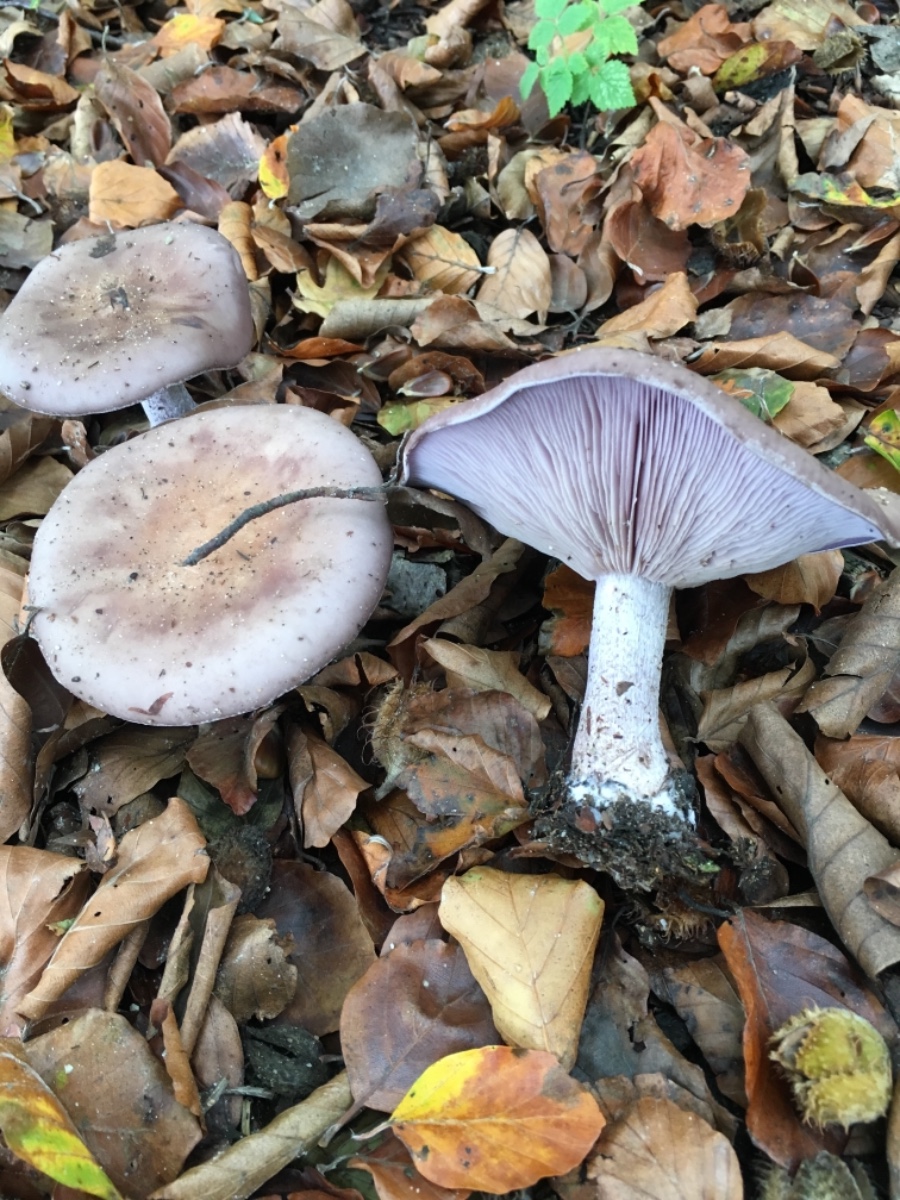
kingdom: Fungi
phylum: Basidiomycota
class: Agaricomycetes
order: Agaricales
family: Tricholomataceae
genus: Lepista
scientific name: Lepista nuda
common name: violet hekseringshat
